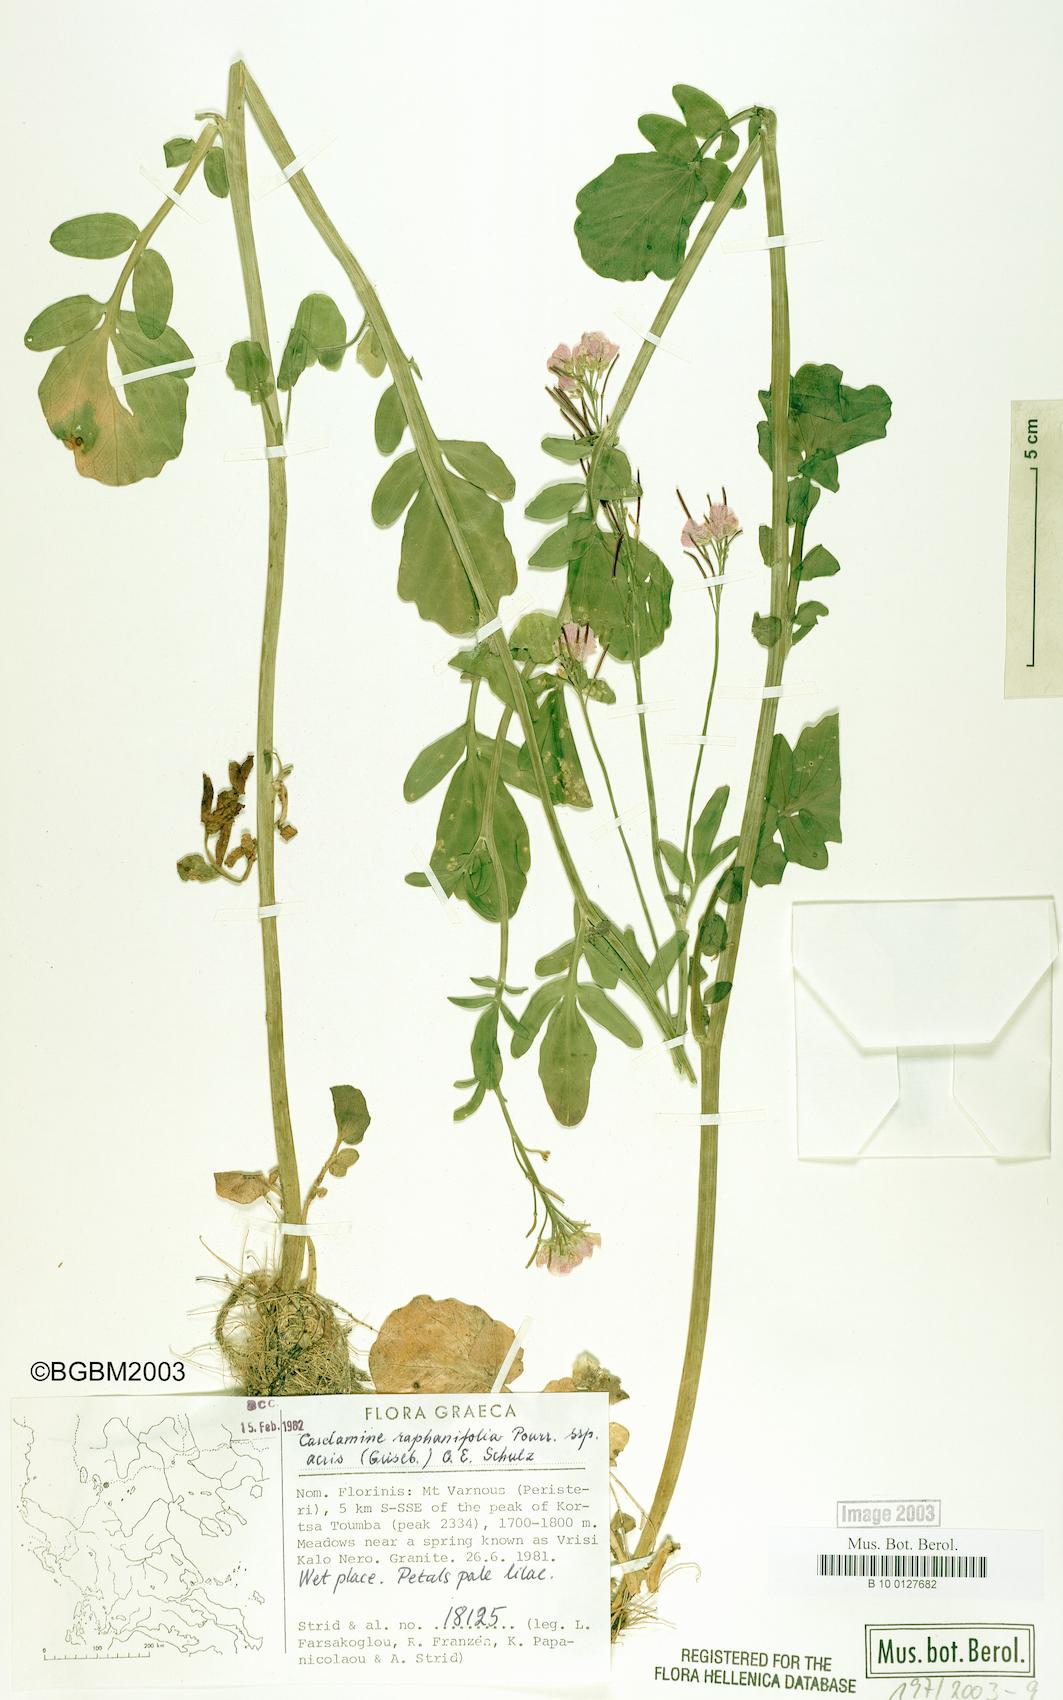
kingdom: Plantae
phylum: Tracheophyta
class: Magnoliopsida
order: Brassicales
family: Brassicaceae
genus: Cardamine
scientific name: Cardamine raphanifolia
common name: Greater cuckooflower
